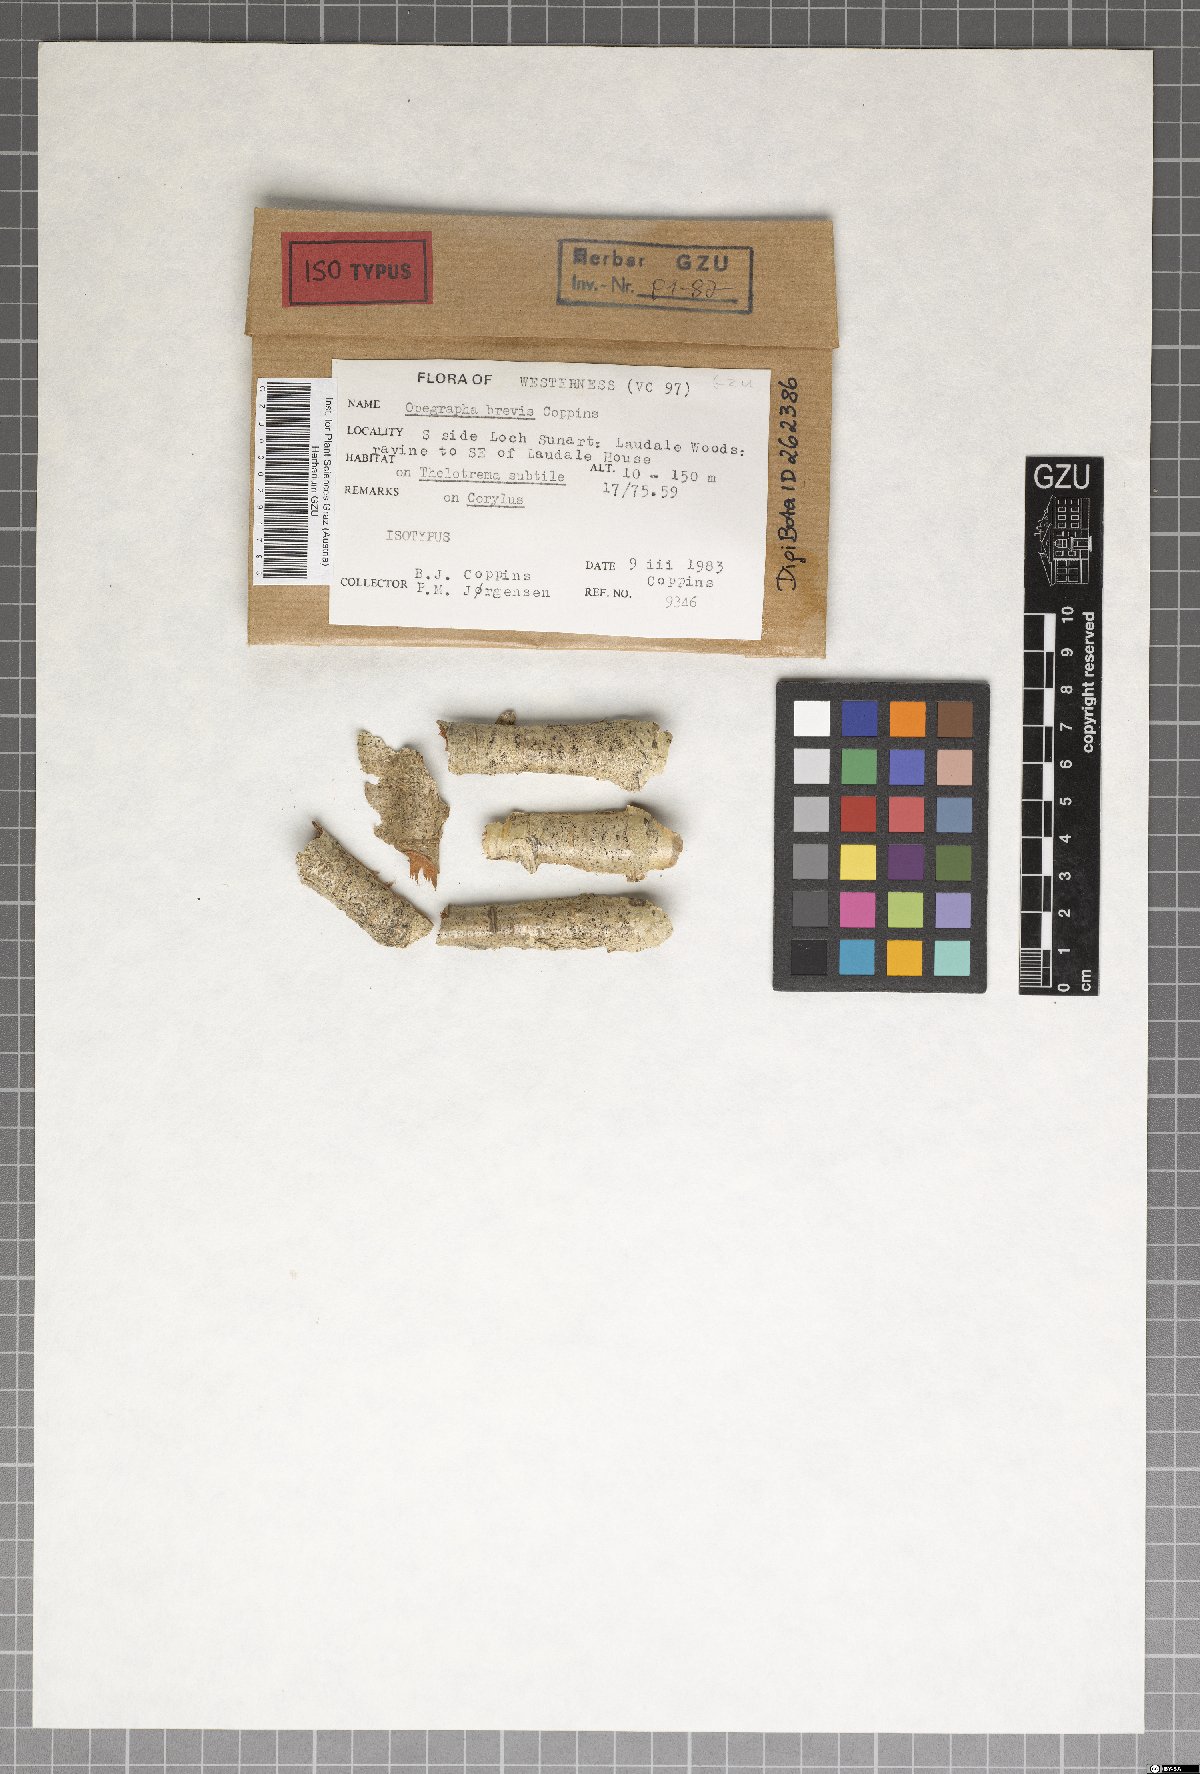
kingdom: Fungi
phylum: Ascomycota
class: Arthoniomycetes
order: Arthoniales
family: Opegraphaceae
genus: Opegrapha
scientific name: Opegrapha brevis
